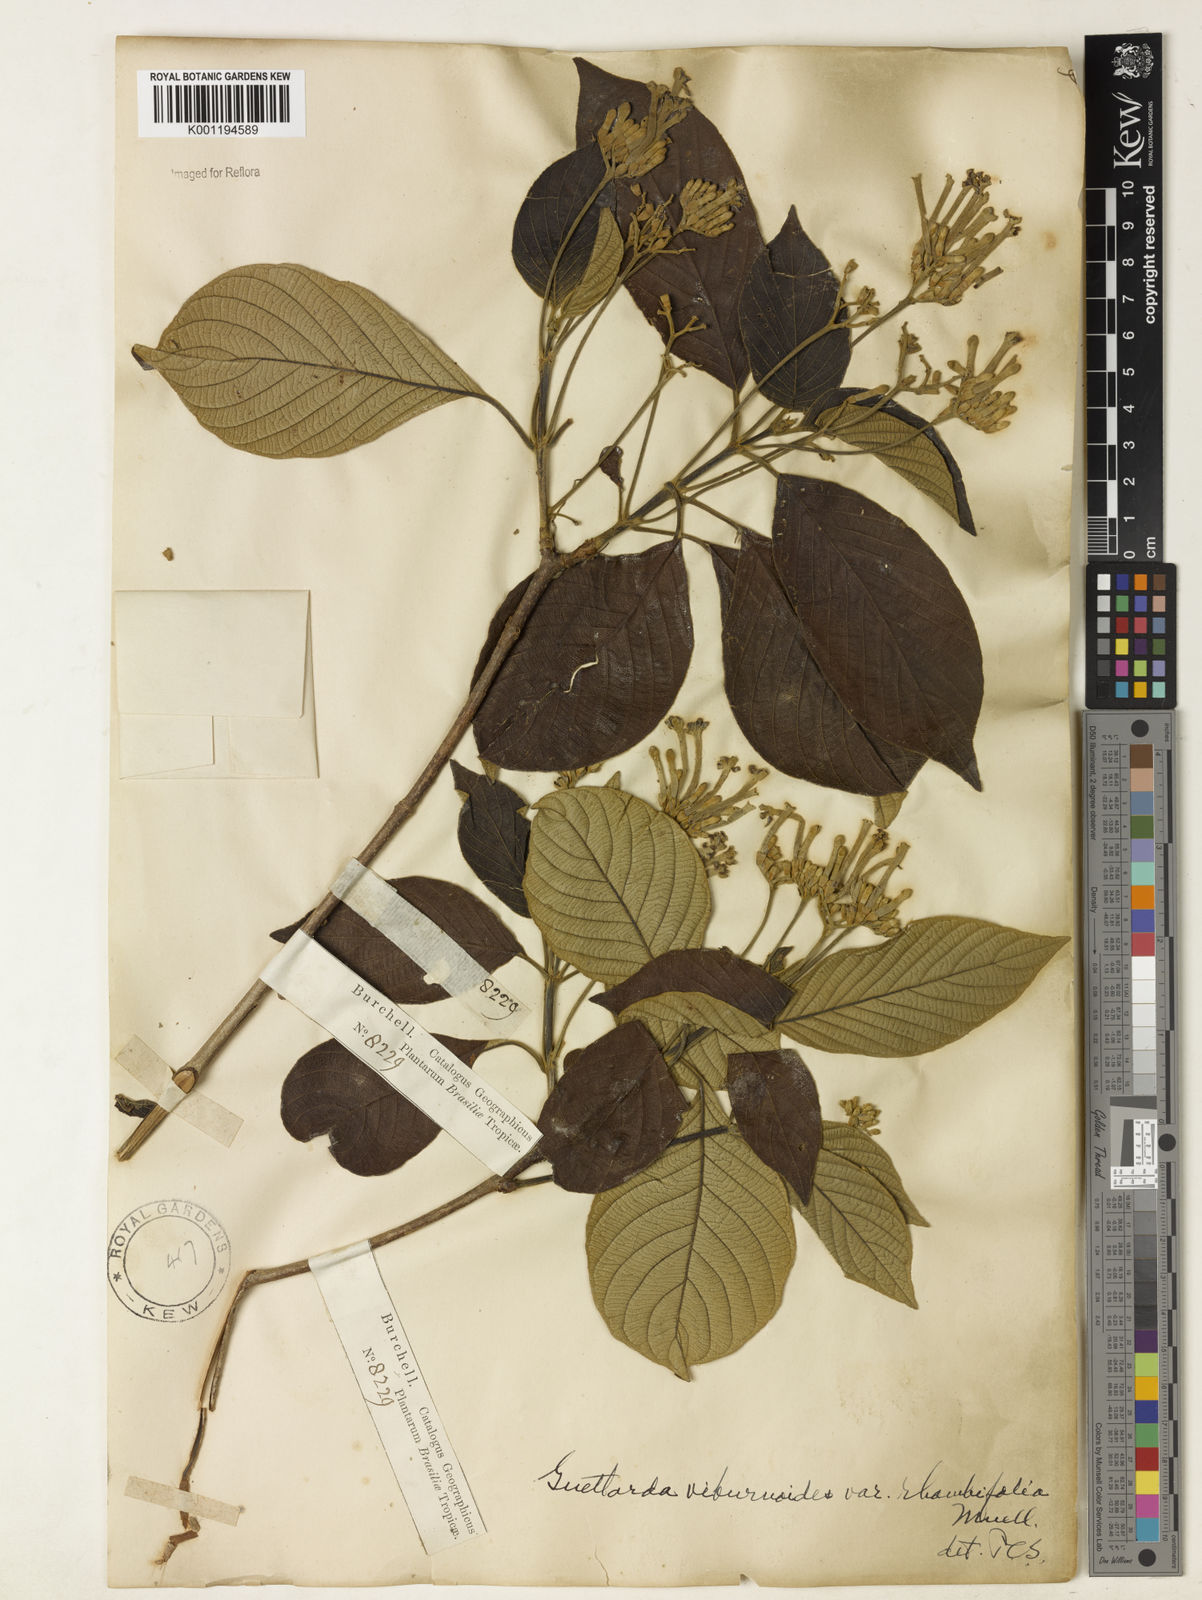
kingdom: Plantae
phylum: Tracheophyta
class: Magnoliopsida
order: Gentianales
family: Rubiaceae
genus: Guettarda
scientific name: Guettarda viburnoides
